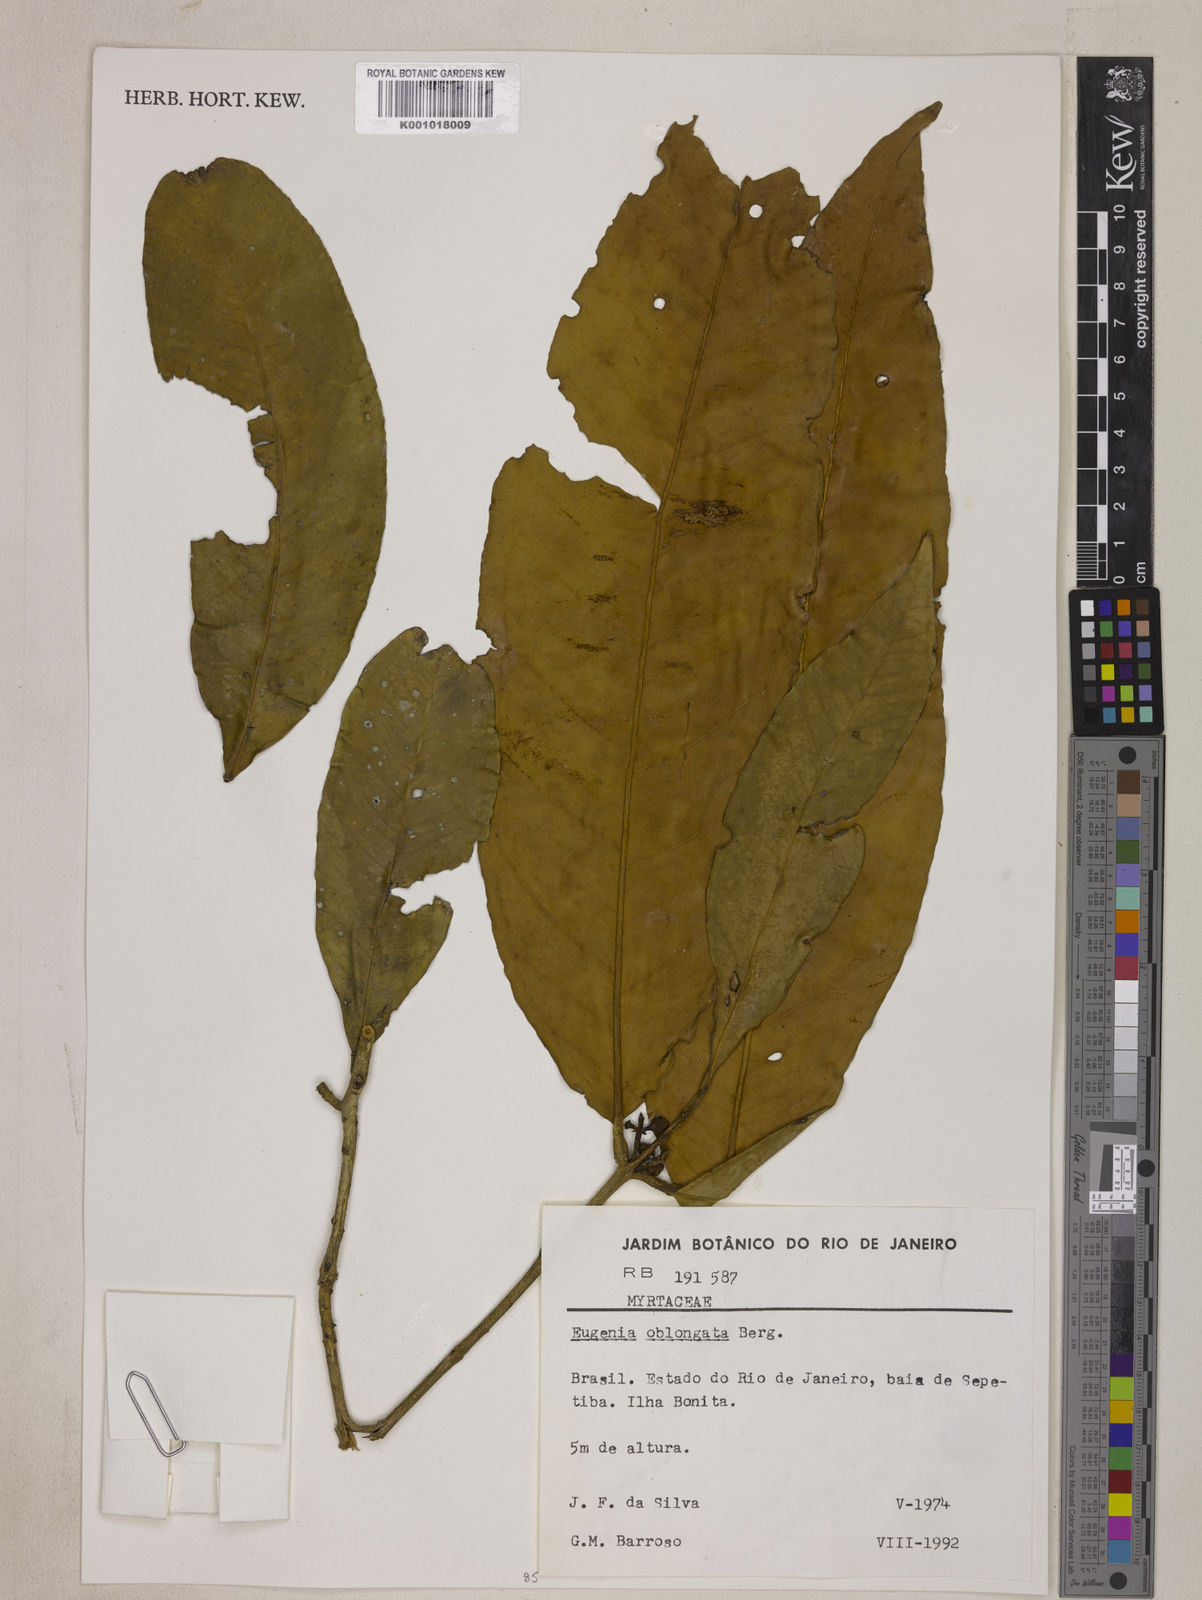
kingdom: Plantae
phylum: Tracheophyta
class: Magnoliopsida
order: Myrtales
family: Myrtaceae
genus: Eugenia
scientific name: Eugenia oblongata
